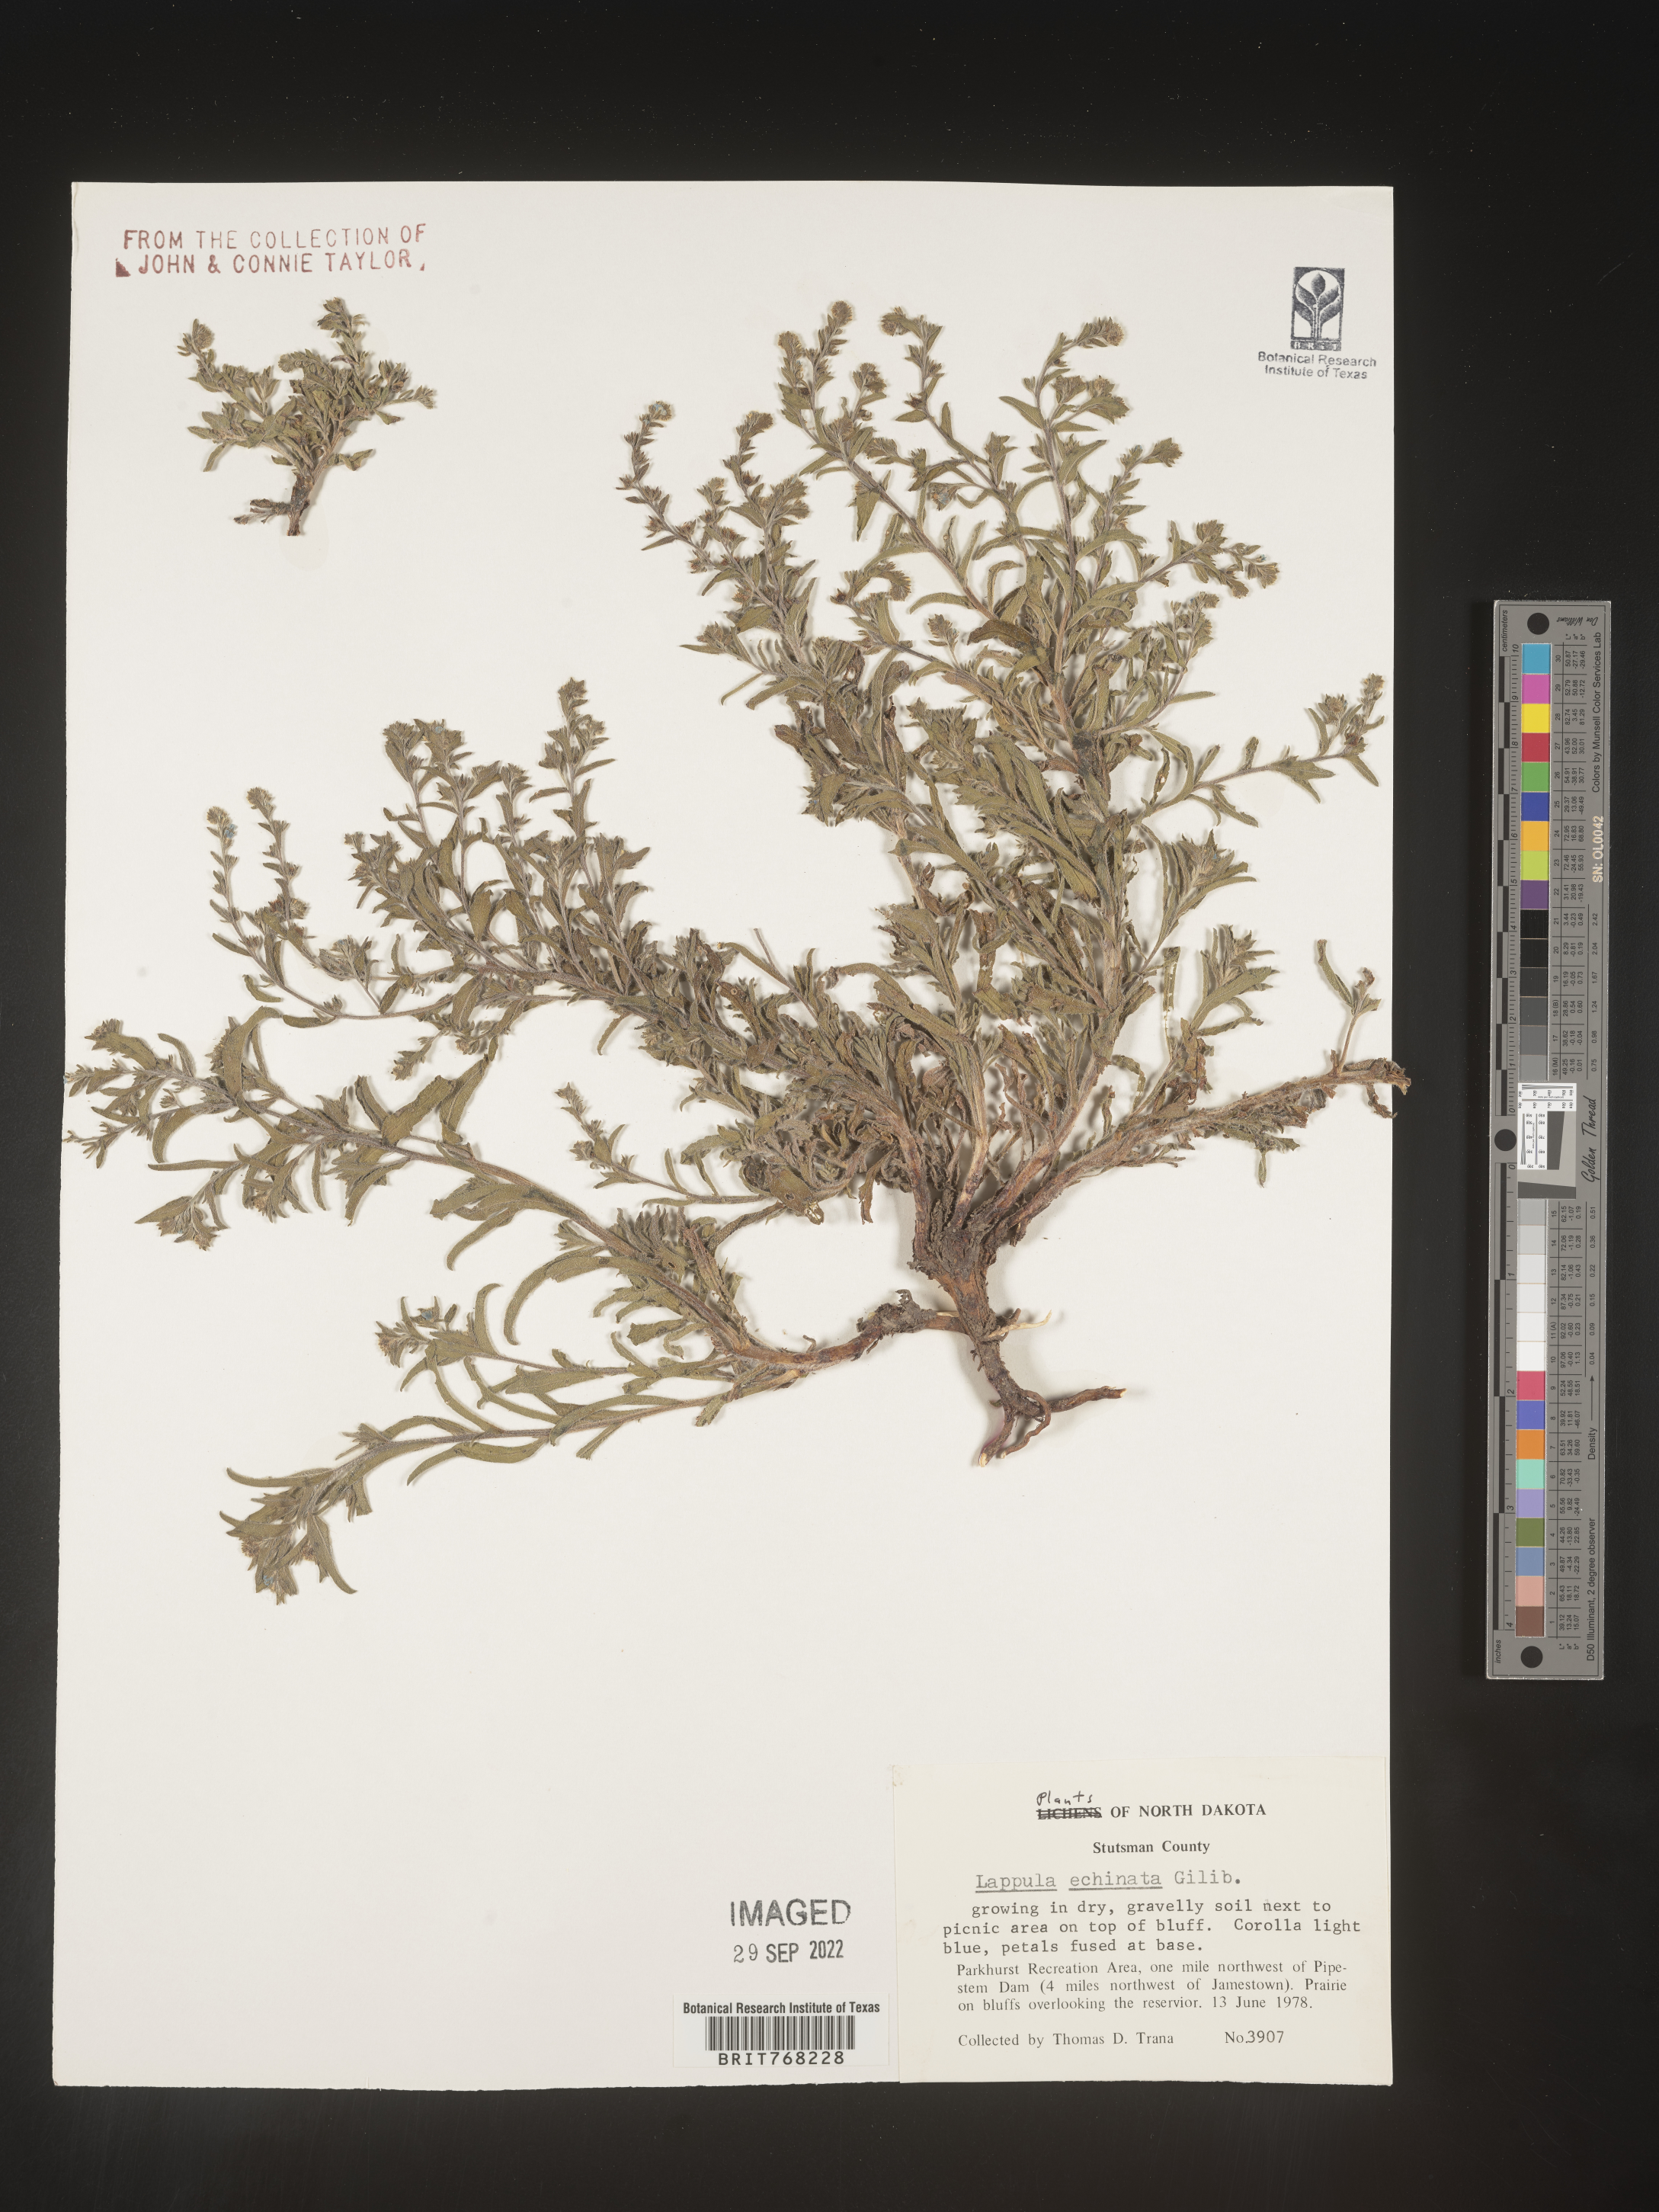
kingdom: Plantae
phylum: Tracheophyta
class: Magnoliopsida
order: Boraginales
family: Boraginaceae
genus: Lappula
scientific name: Lappula
